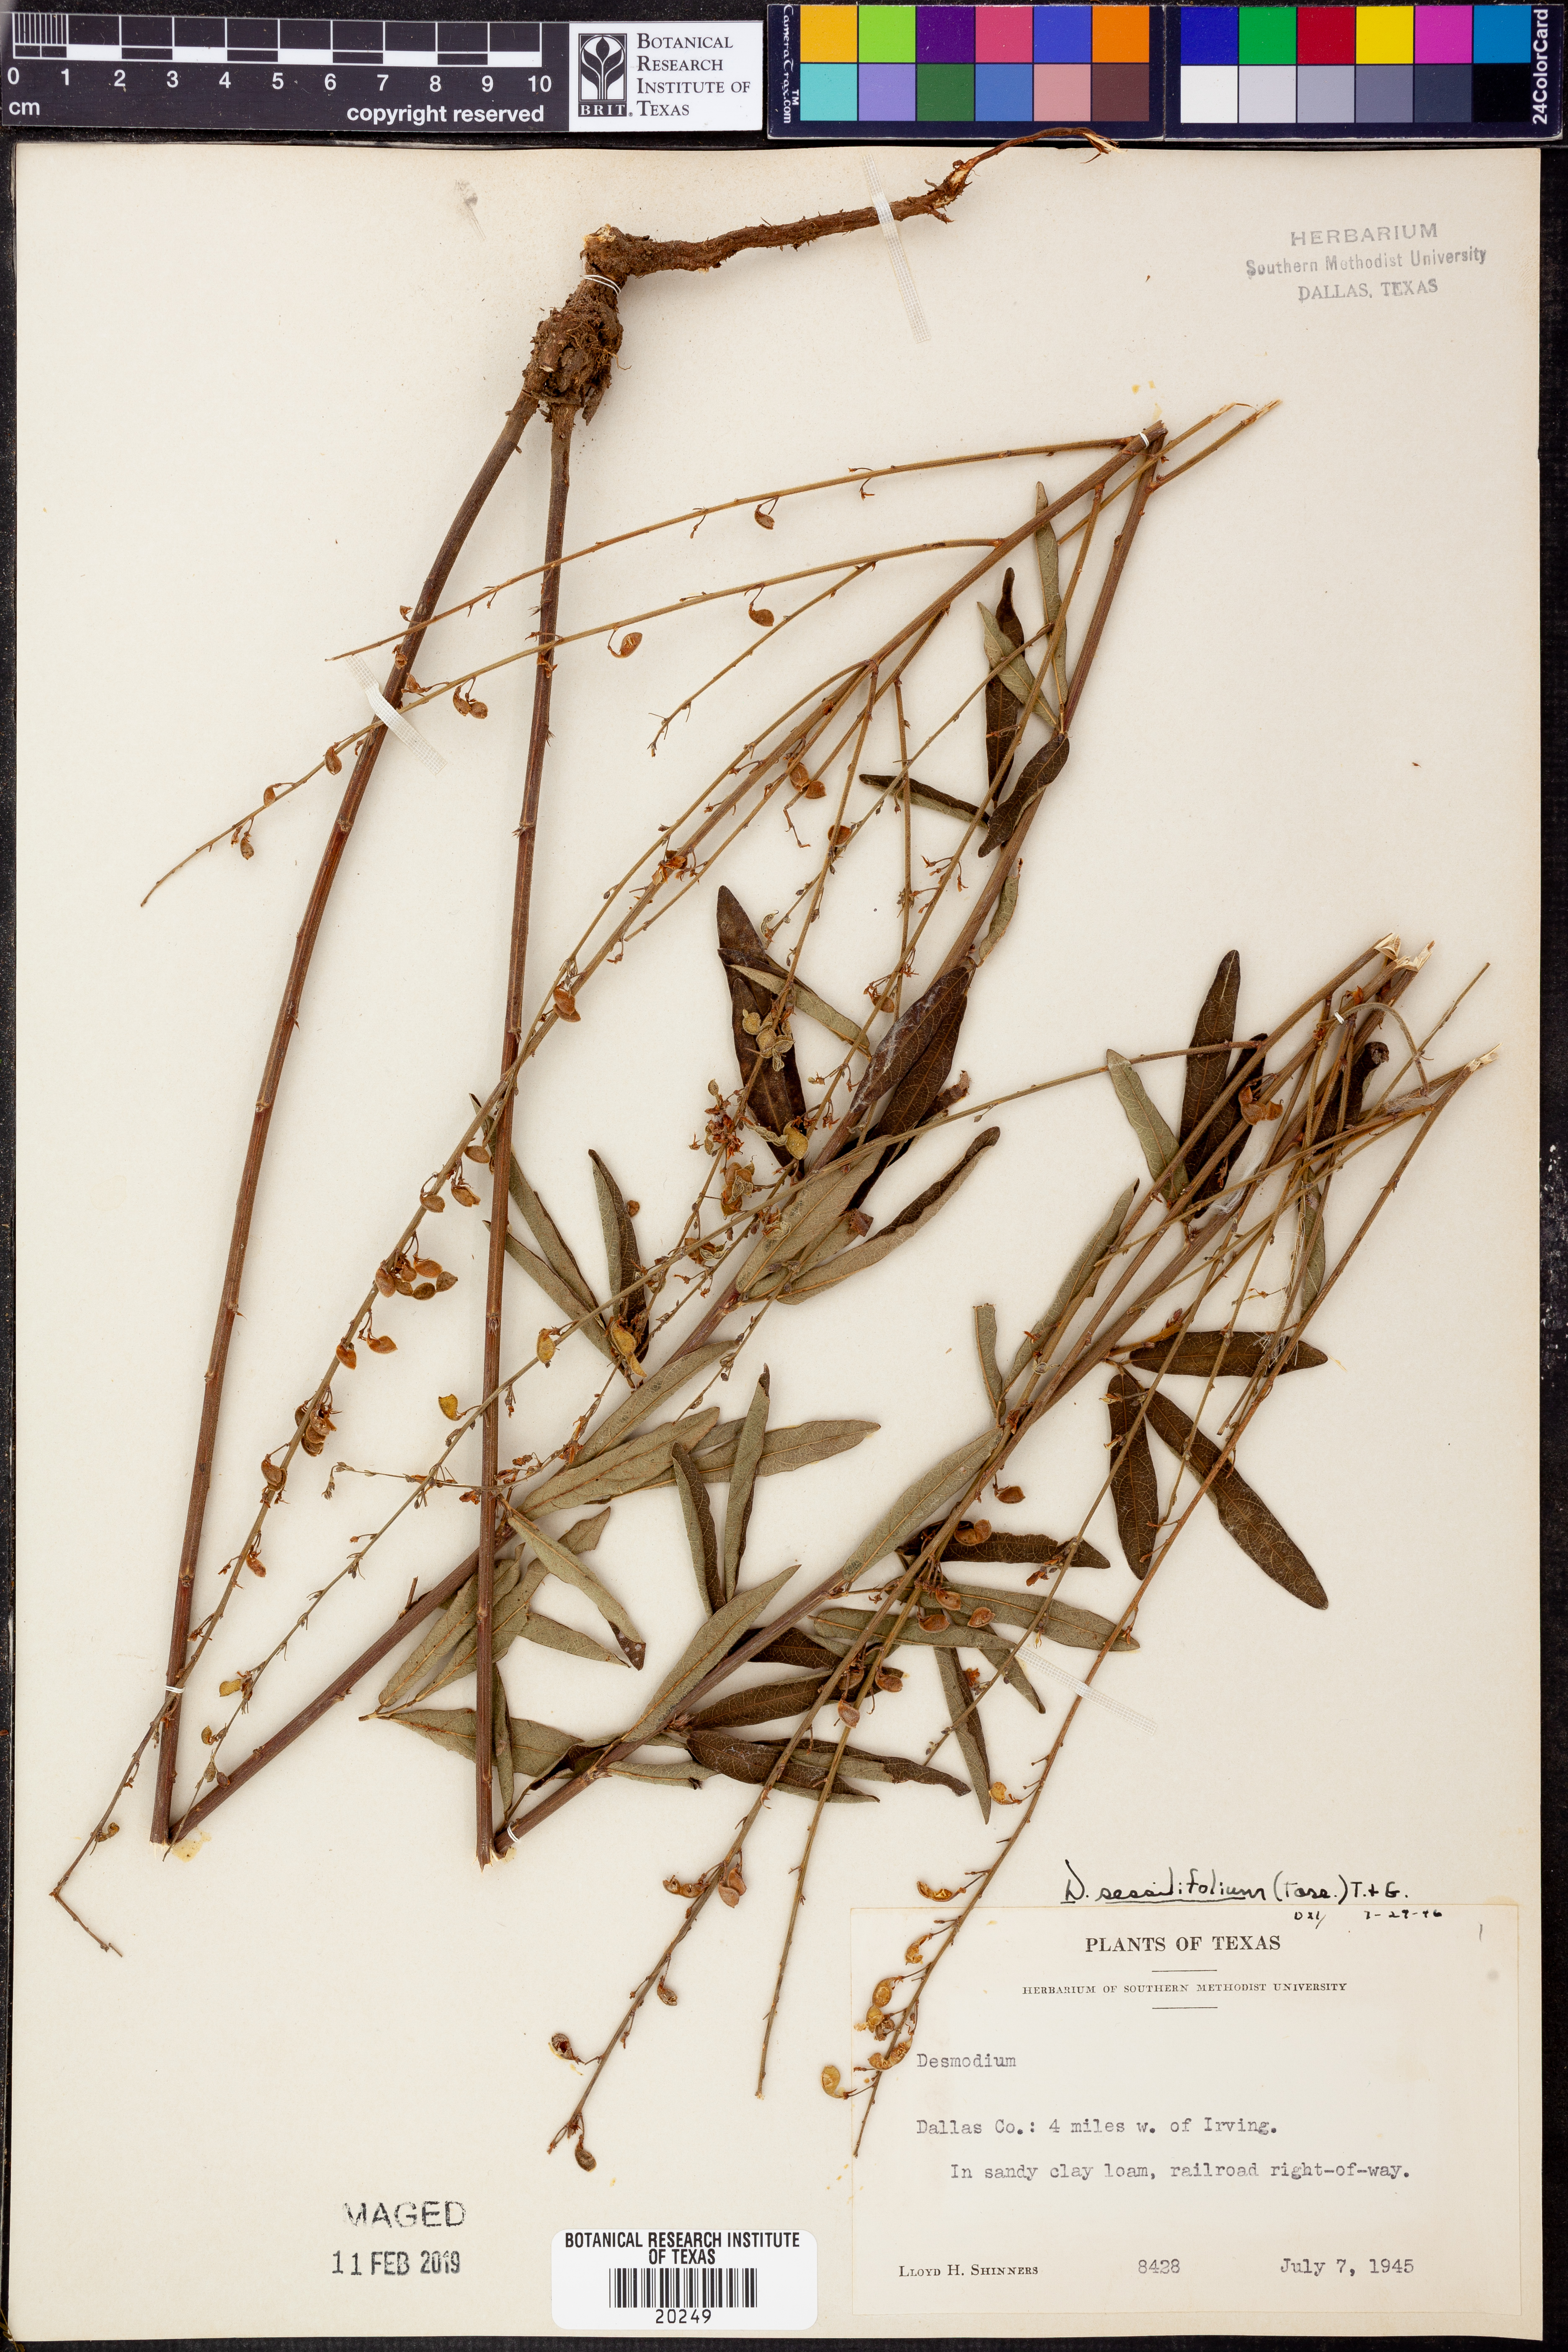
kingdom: Plantae
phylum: Tracheophyta
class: Magnoliopsida
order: Fabales
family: Fabaceae
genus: Desmodium
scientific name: Desmodium sessilifolium
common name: Sessile tick-clover
